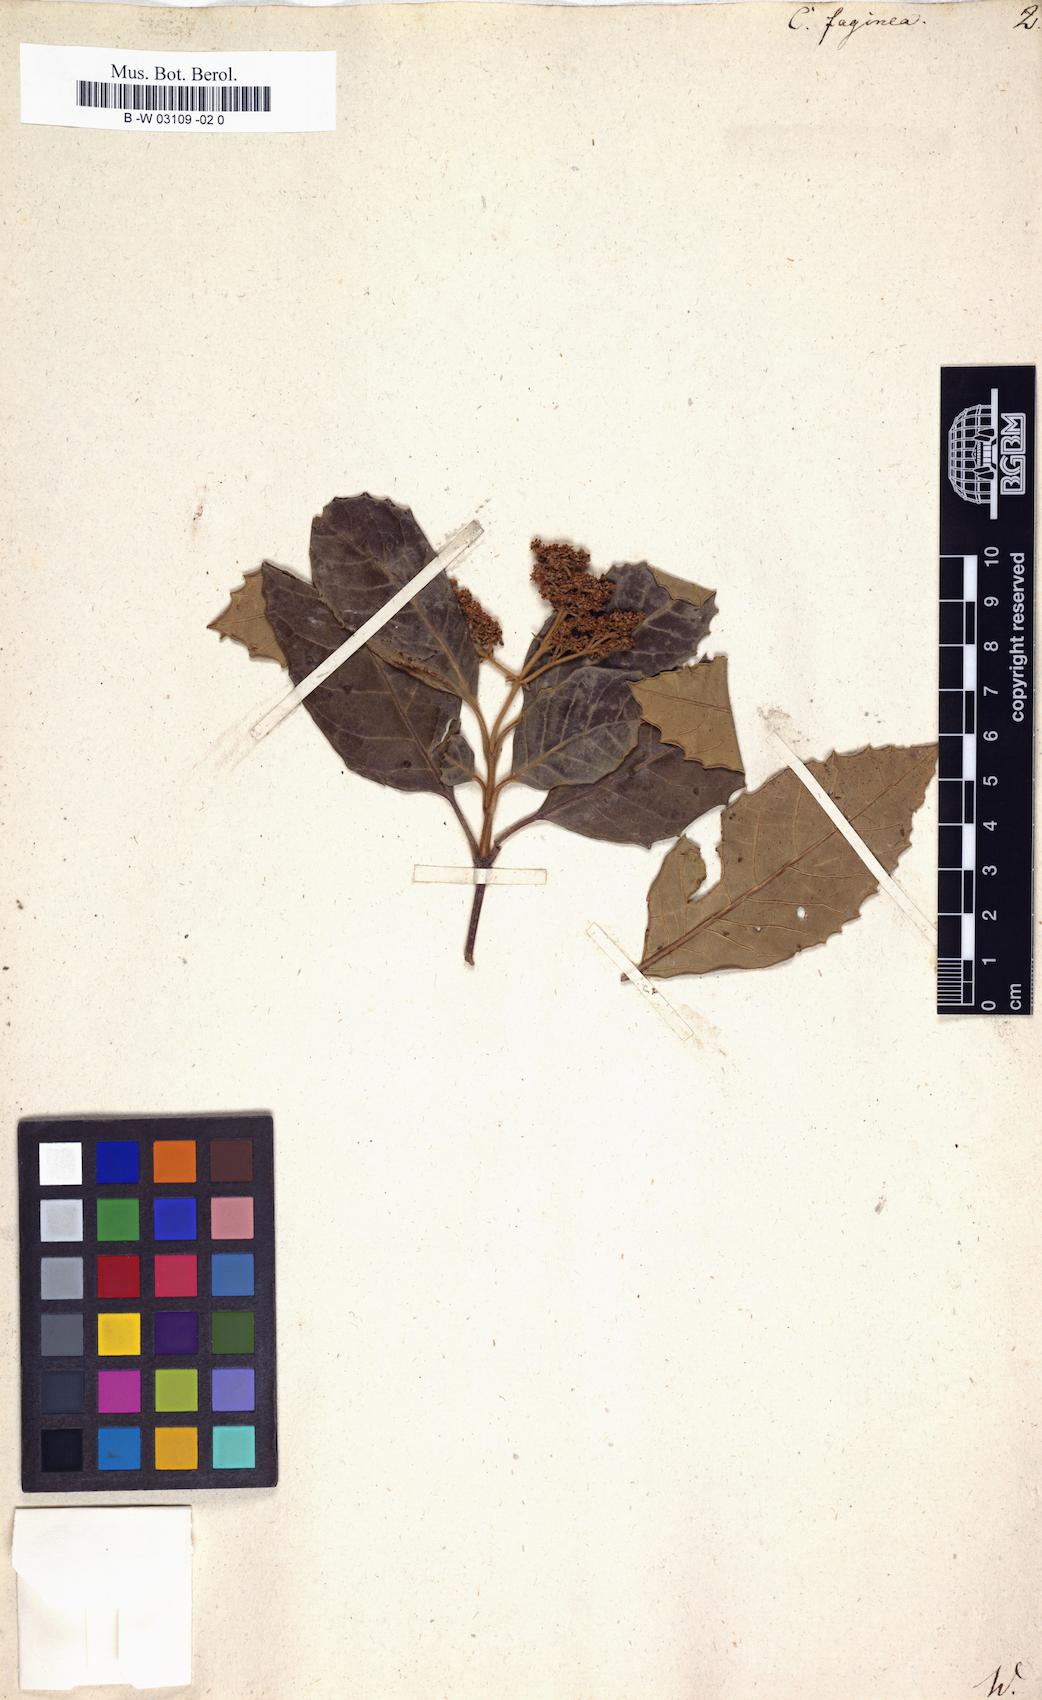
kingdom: Plantae
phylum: Tracheophyta
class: Magnoliopsida
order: Cornales
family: Curtisiaceae
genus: Curtisia
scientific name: Curtisia dentata
